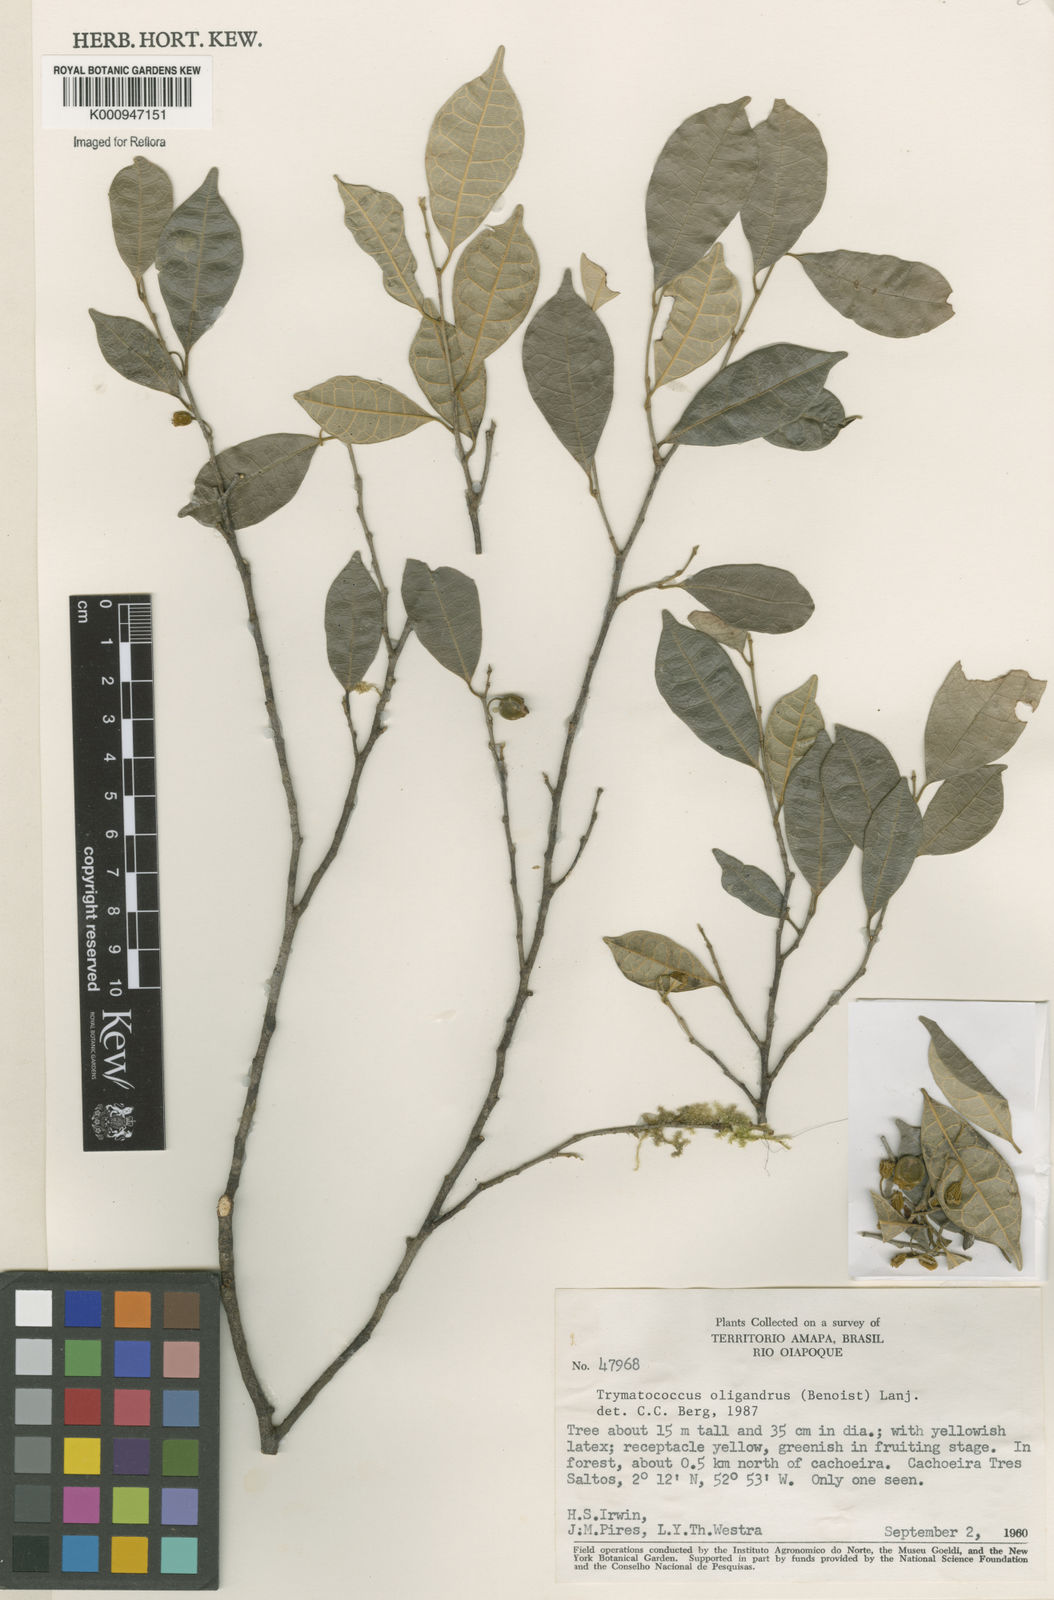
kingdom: Plantae
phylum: Tracheophyta
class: Magnoliopsida
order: Rosales
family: Moraceae
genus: Brosimum
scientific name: Brosimum oligandrum
